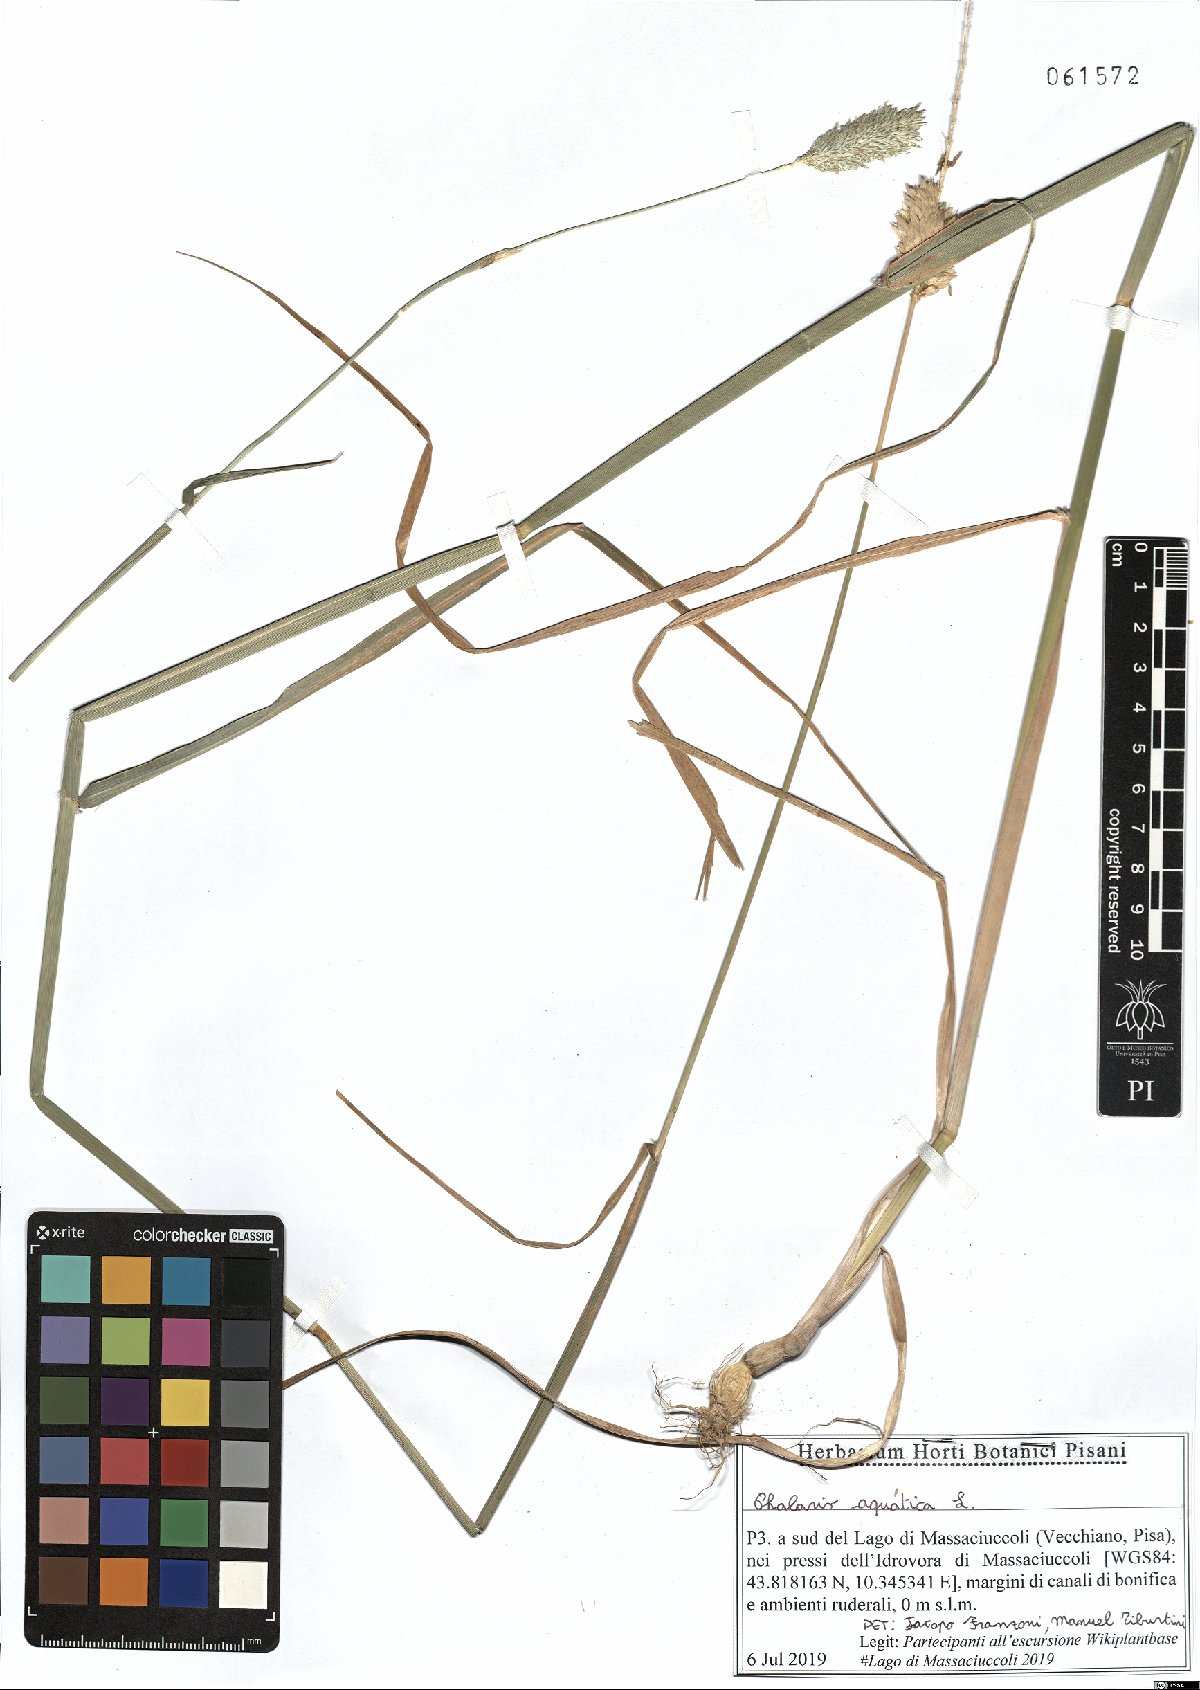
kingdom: Plantae
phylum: Tracheophyta
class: Liliopsida
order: Poales
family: Poaceae
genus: Phalaris
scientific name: Phalaris aquatica
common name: Bulbous canary-grass
